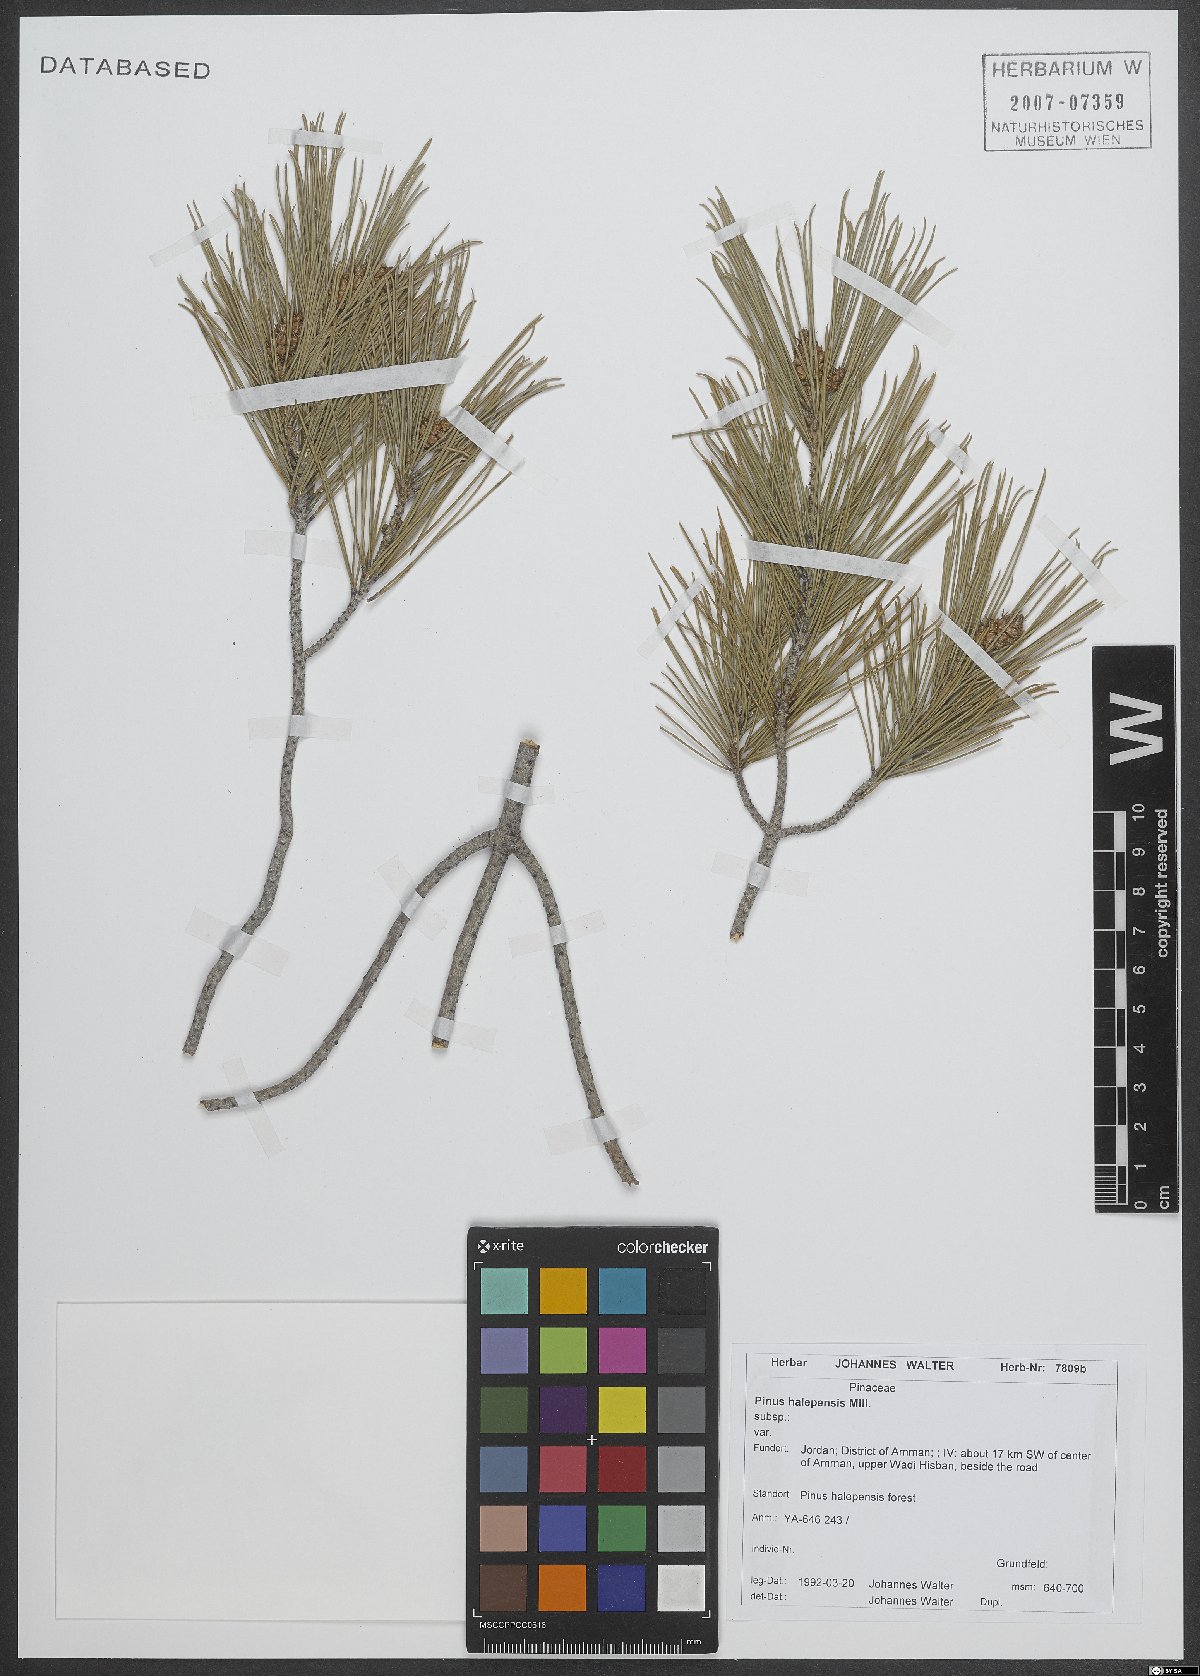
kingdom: Plantae
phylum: Tracheophyta
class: Pinopsida
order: Pinales
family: Pinaceae
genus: Pinus
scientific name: Pinus halepensis
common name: Aleppo pine
